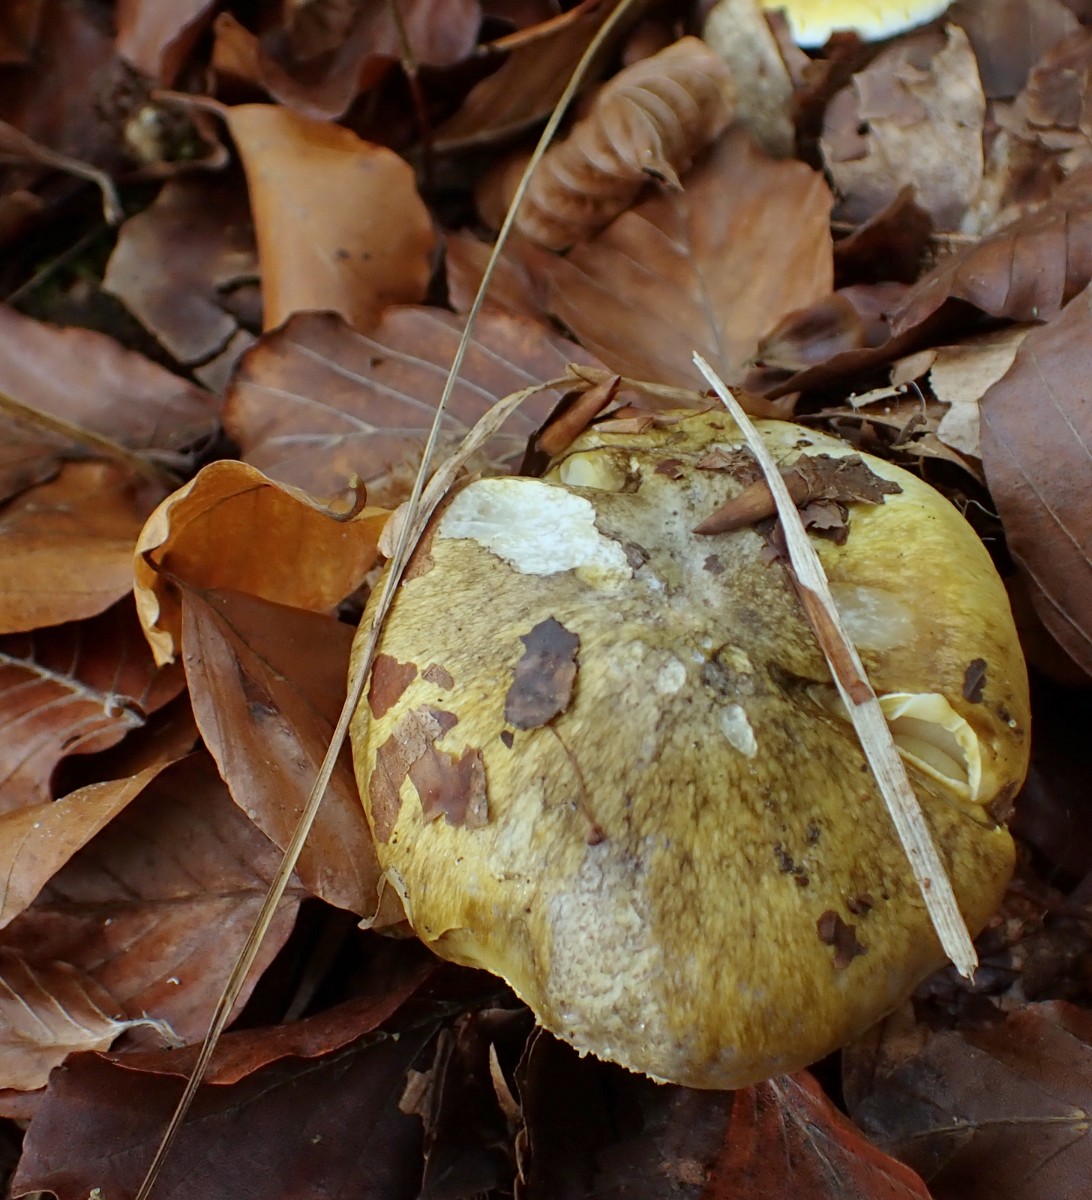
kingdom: Fungi
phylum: Basidiomycota
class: Agaricomycetes
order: Agaricales
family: Tricholomataceae
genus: Tricholoma
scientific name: Tricholoma sejunctum
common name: grøngul ridderhat
